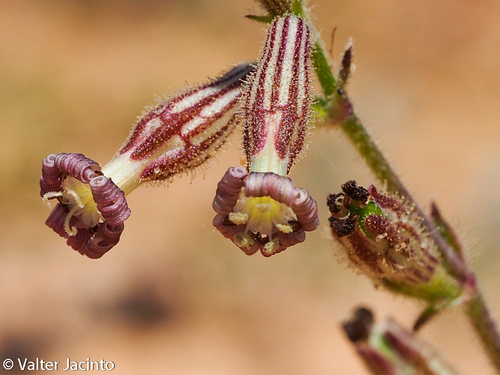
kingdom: Plantae
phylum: Tracheophyta
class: Magnoliopsida
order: Caryophyllales
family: Caryophyllaceae
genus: Silene
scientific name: Silene nicaeensis
